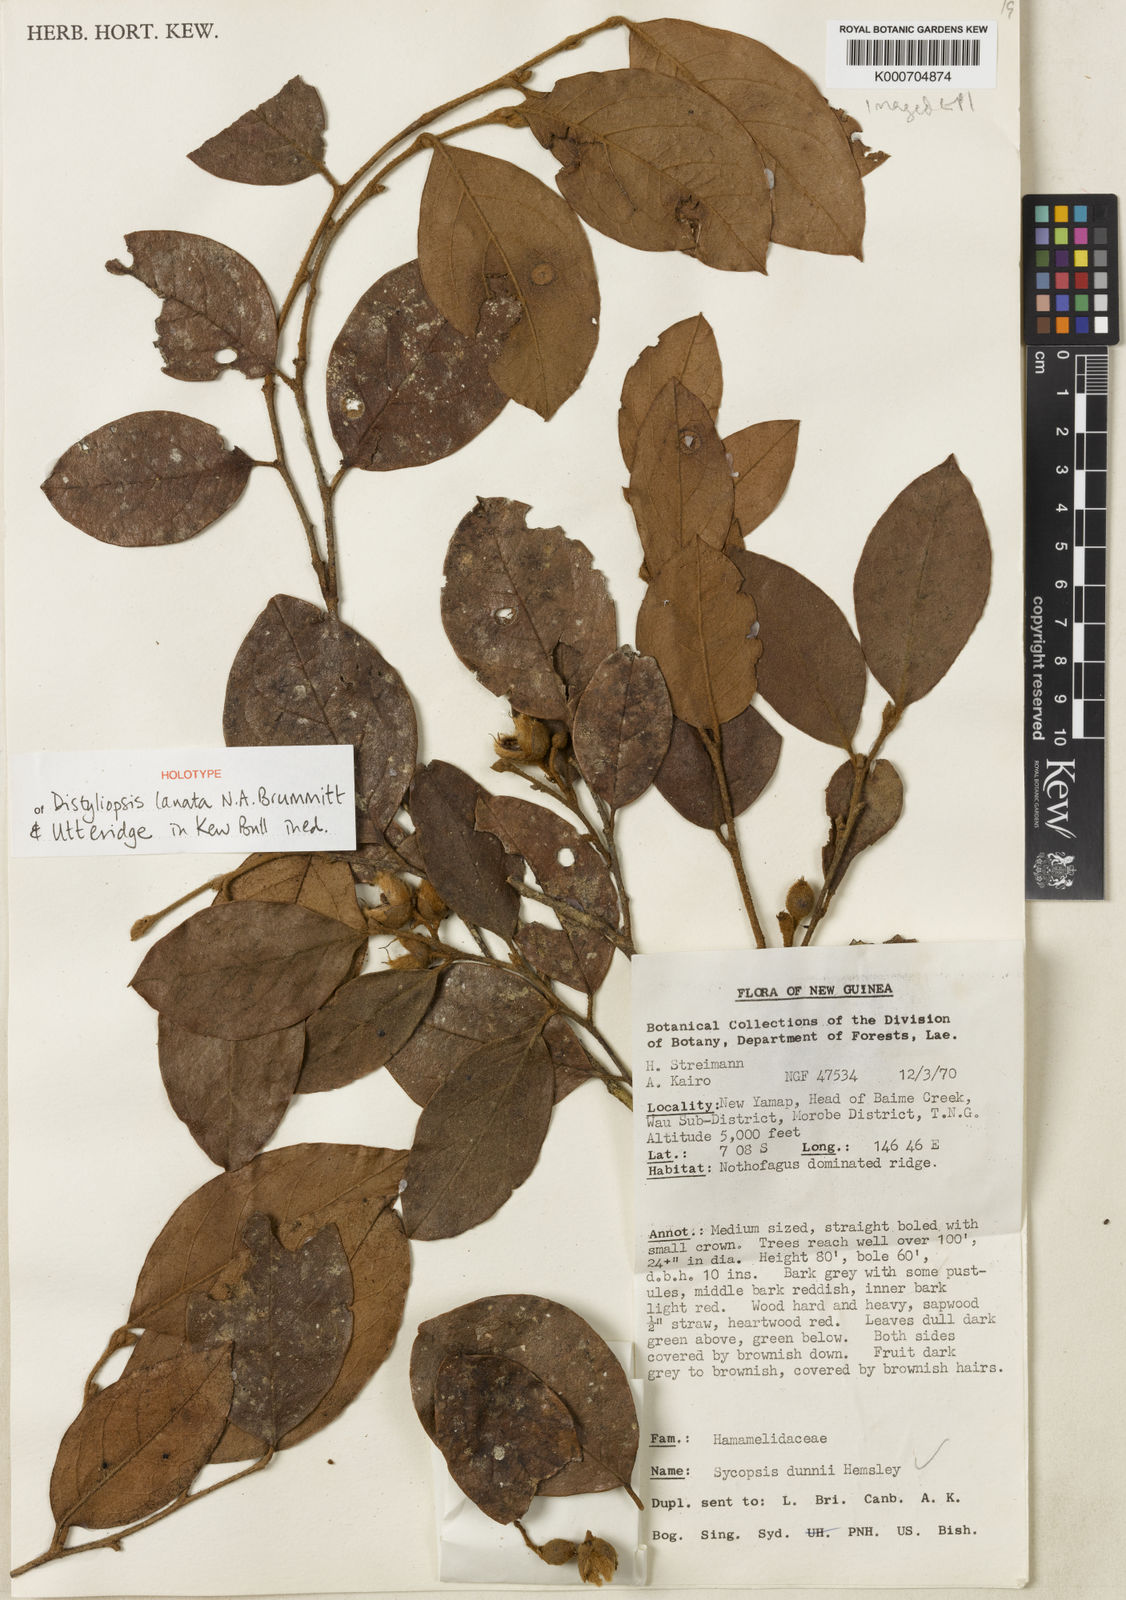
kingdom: Plantae
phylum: Tracheophyta
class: Magnoliopsida
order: Saxifragales
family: Hamamelidaceae
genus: Distyliopsis
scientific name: Distyliopsis lanata
